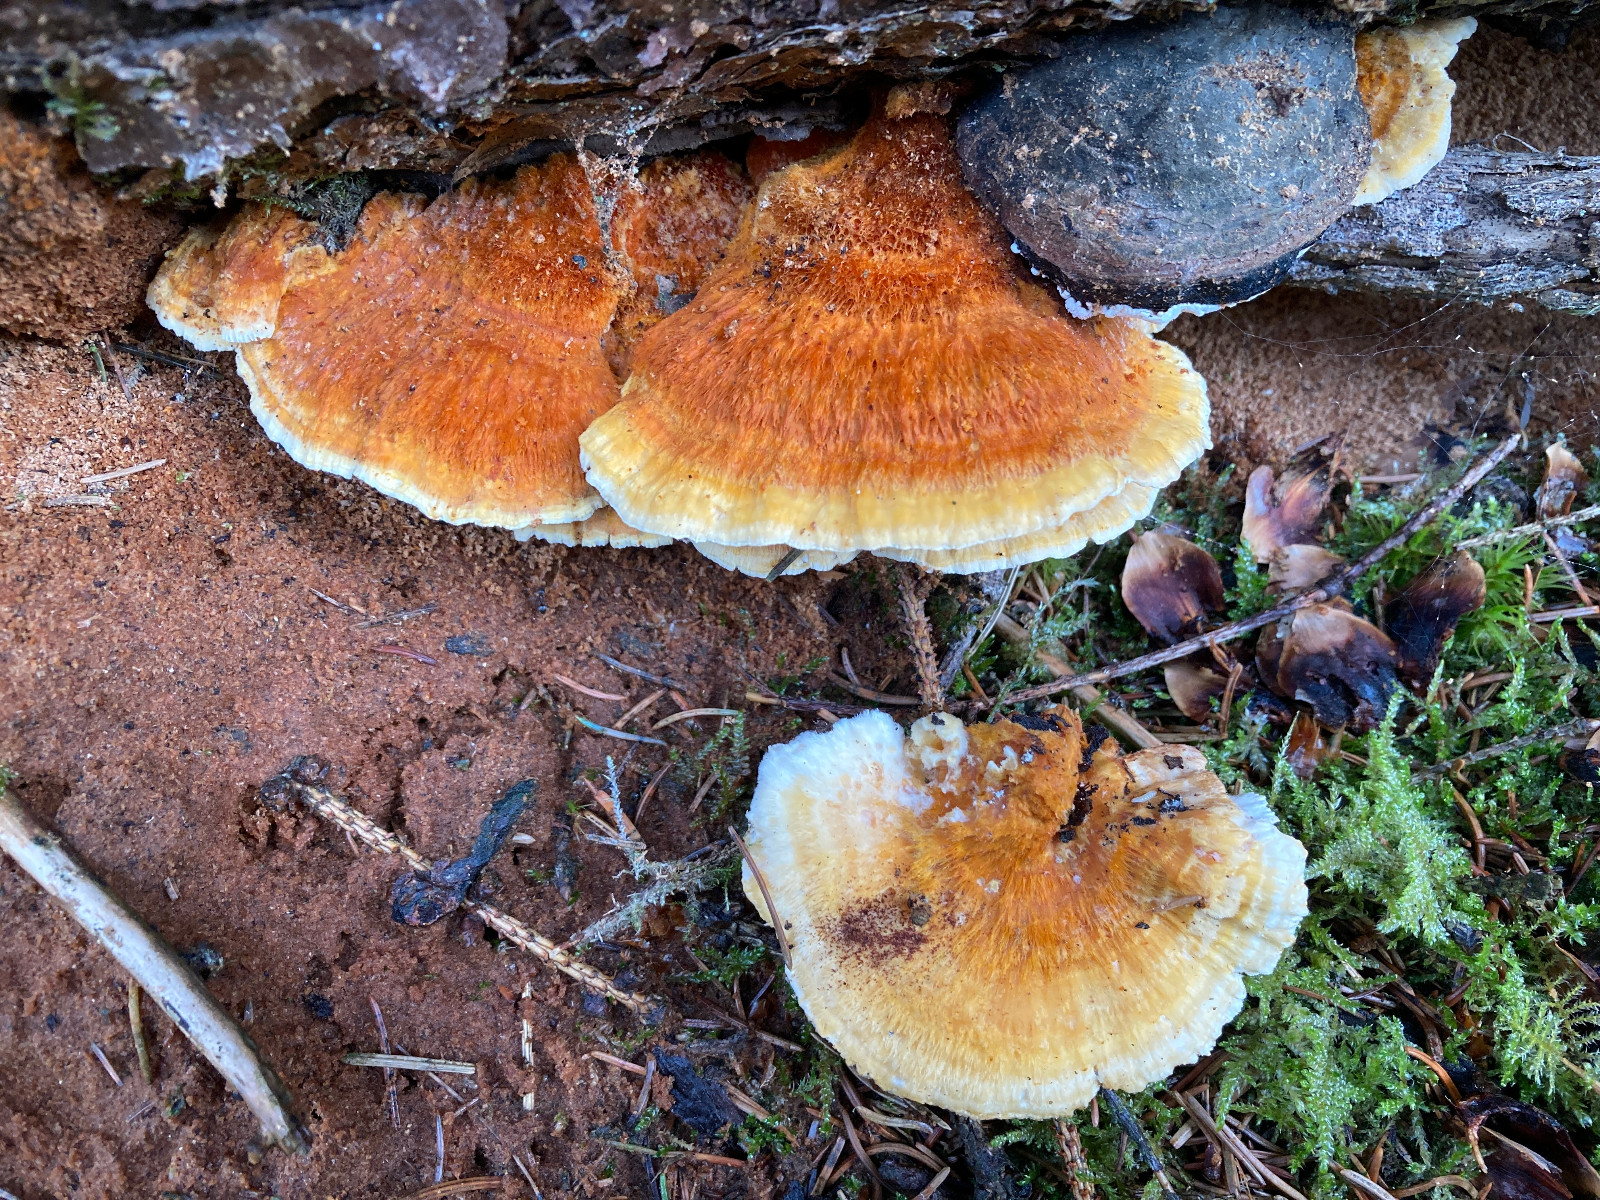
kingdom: Fungi
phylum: Basidiomycota
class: Agaricomycetes
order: Polyporales
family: Pycnoporellaceae
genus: Pycnoporellus
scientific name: Pycnoporellus fulgens
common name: flammeporesvamp
